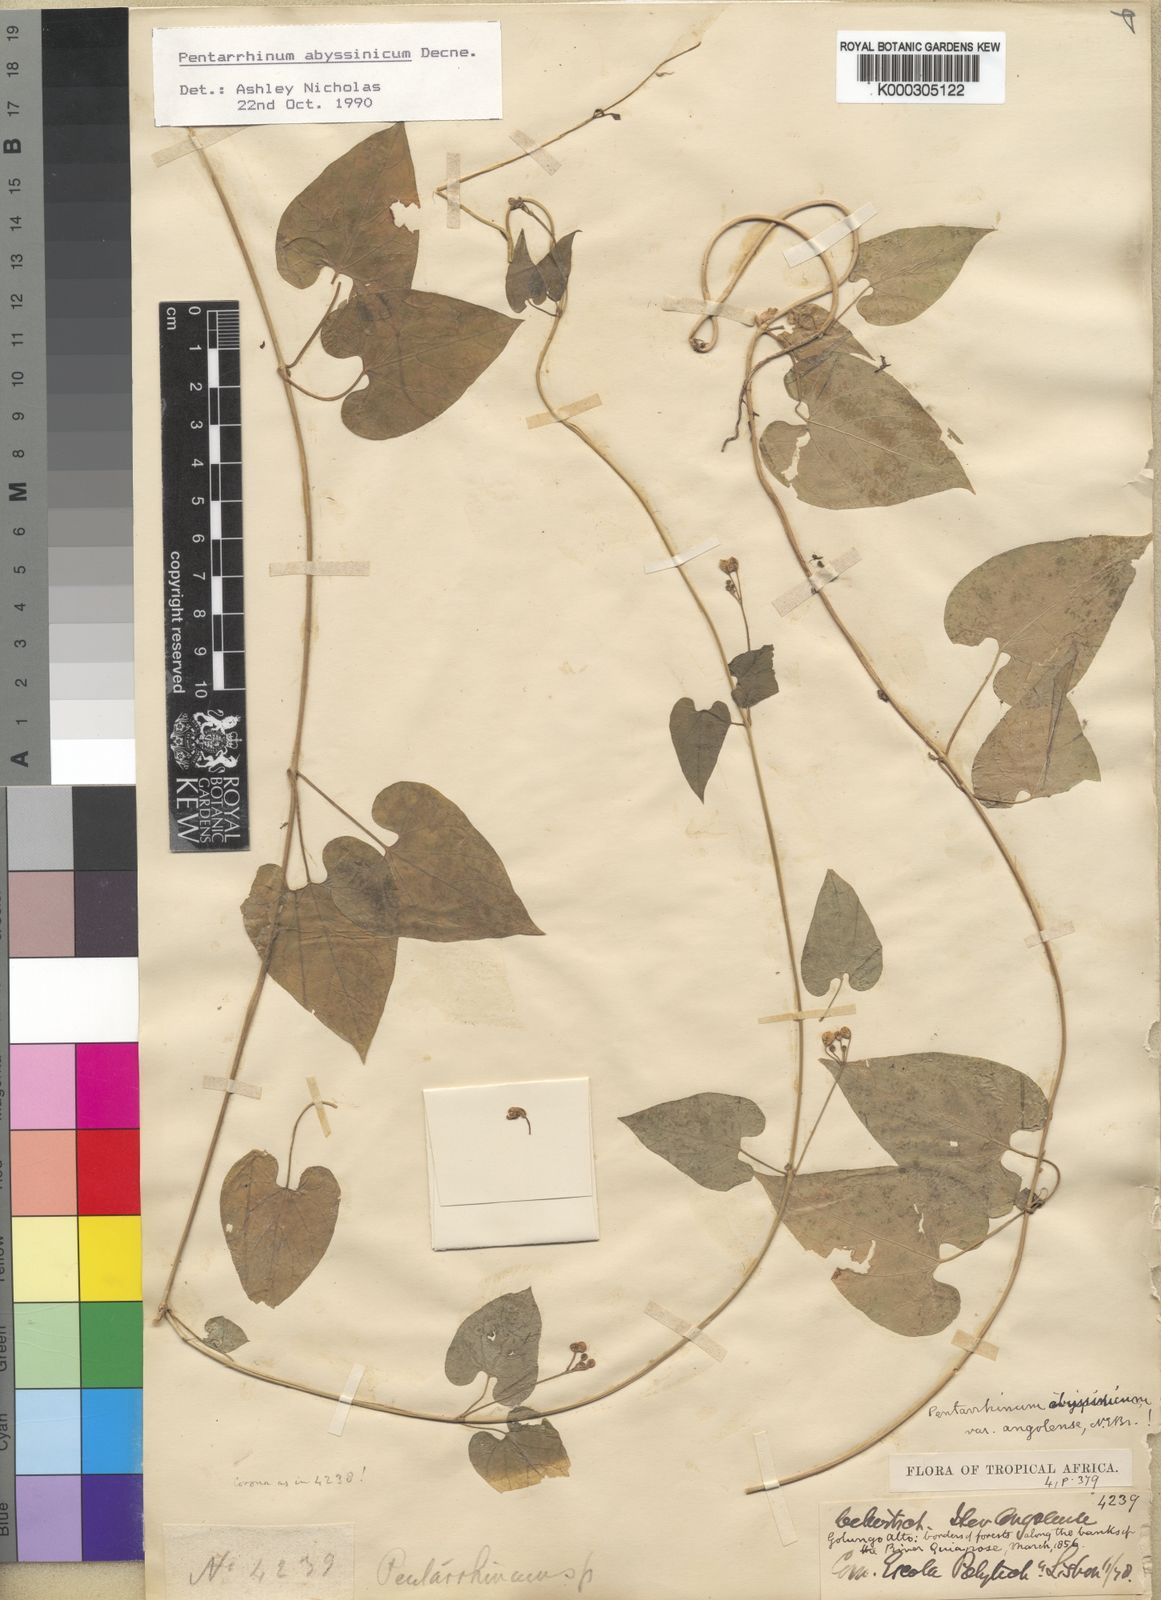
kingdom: Plantae
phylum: Tracheophyta
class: Magnoliopsida
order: Gentianales
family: Apocynaceae
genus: Cynanchum
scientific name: Cynanchum ethiopicum
